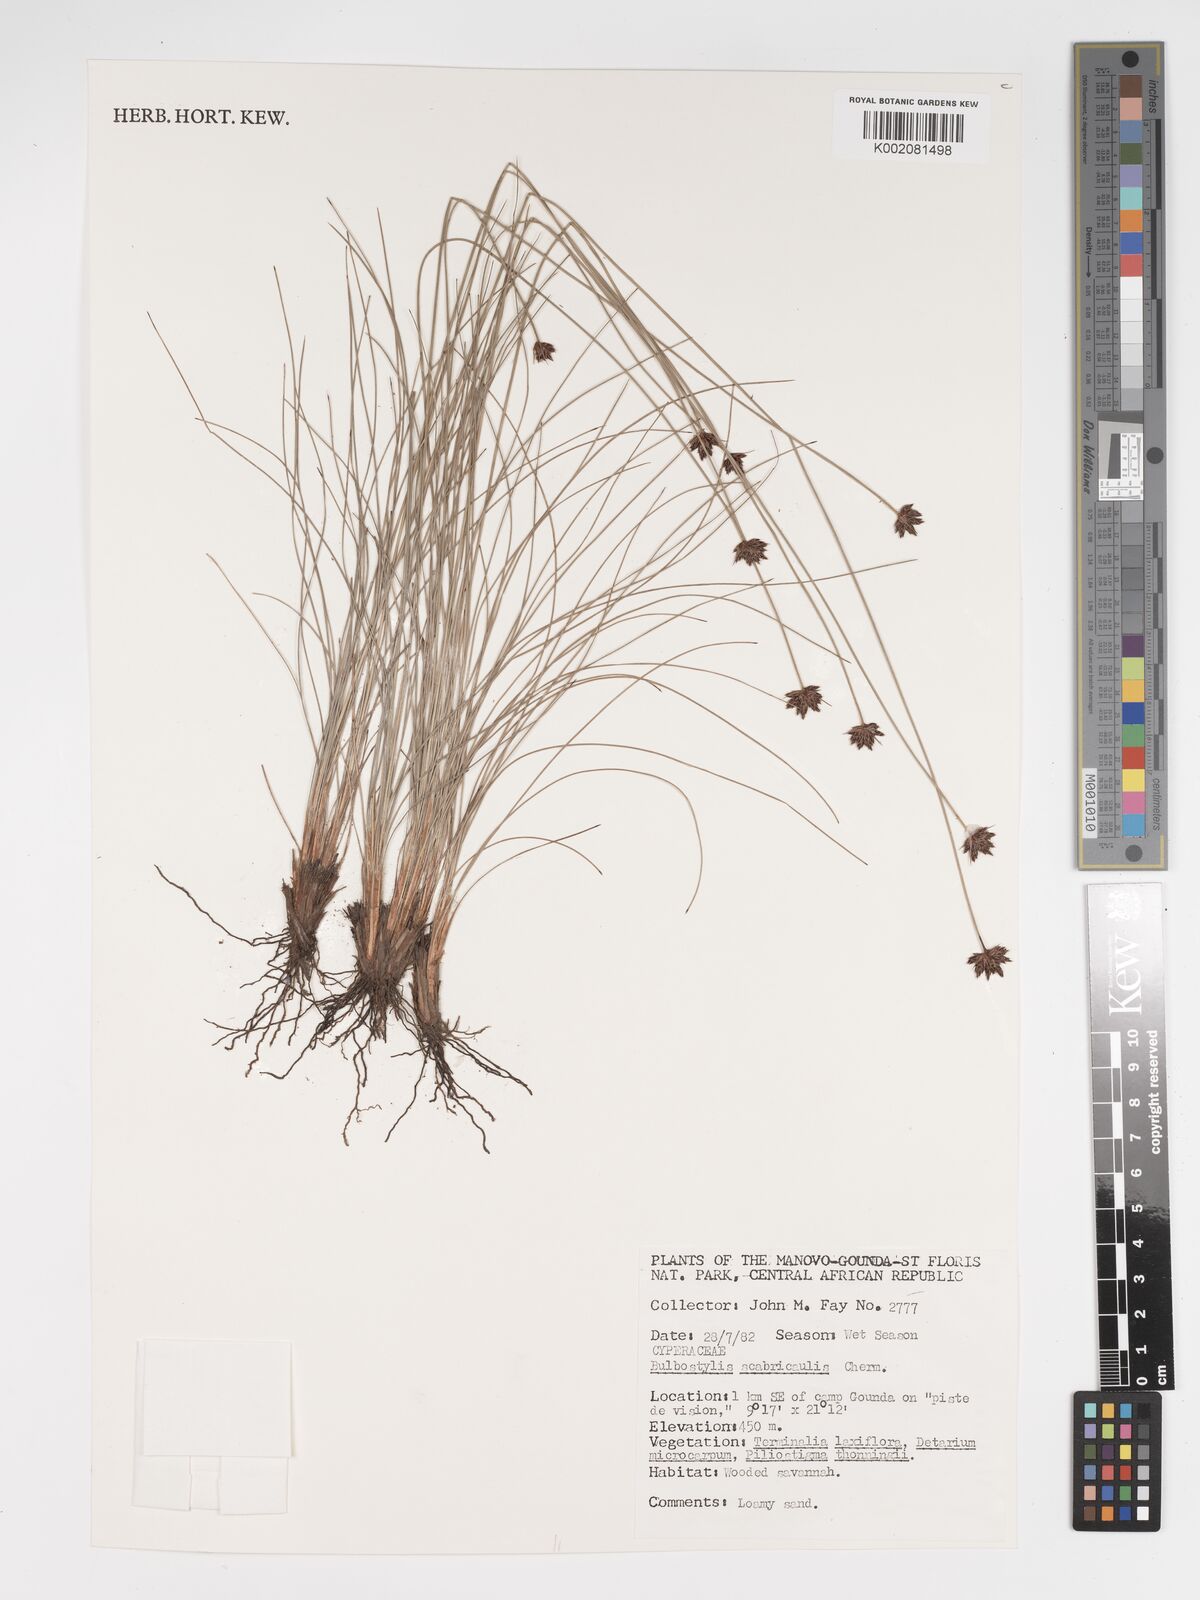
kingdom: Plantae
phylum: Tracheophyta
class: Liliopsida
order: Poales
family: Cyperaceae
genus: Bulbostylis
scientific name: Bulbostylis scabricaulis
